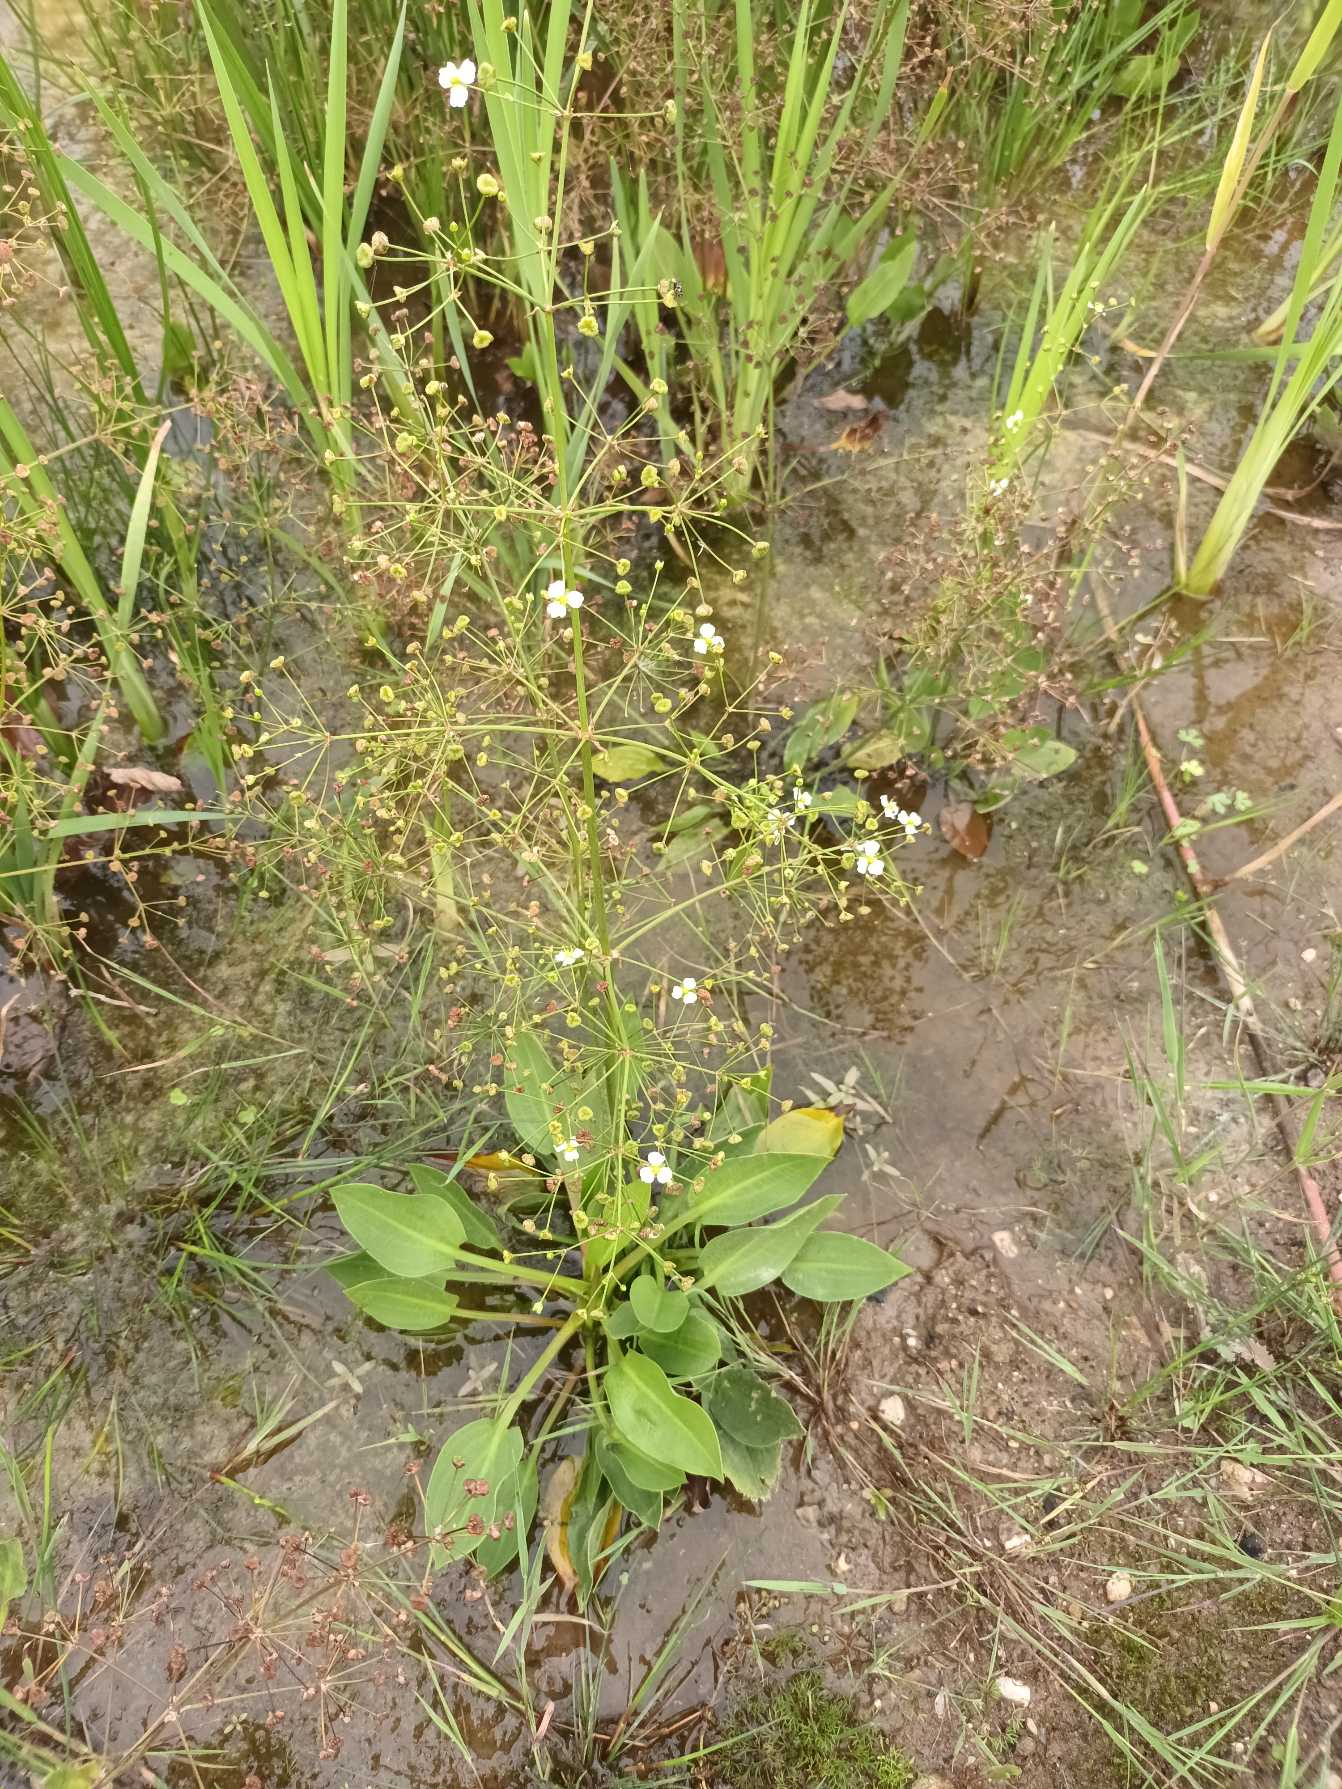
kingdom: Plantae
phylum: Tracheophyta
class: Liliopsida
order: Alismatales
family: Alismataceae
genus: Alisma
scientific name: Alisma plantago-aquatica
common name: Vejbred-skeblad
